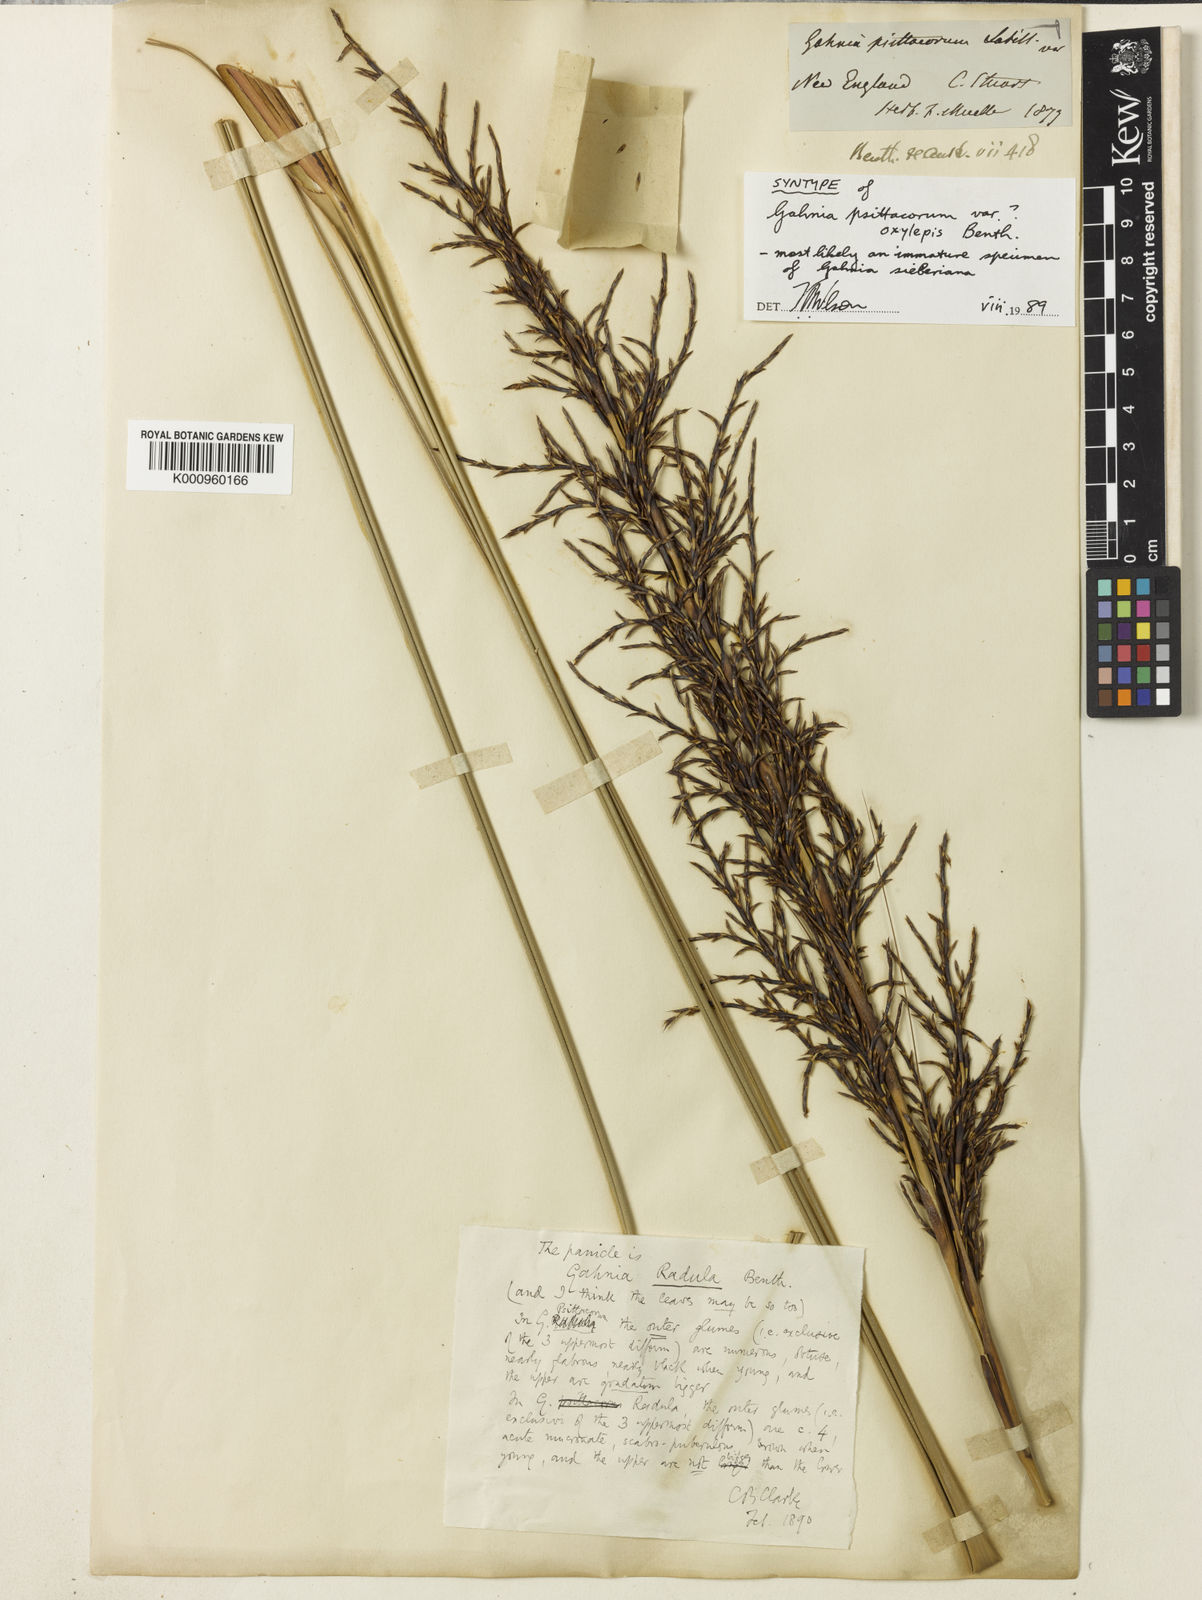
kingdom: Plantae
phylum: Tracheophyta
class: Liliopsida
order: Poales
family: Cyperaceae
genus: Gahnia
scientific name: Gahnia sieberiana
